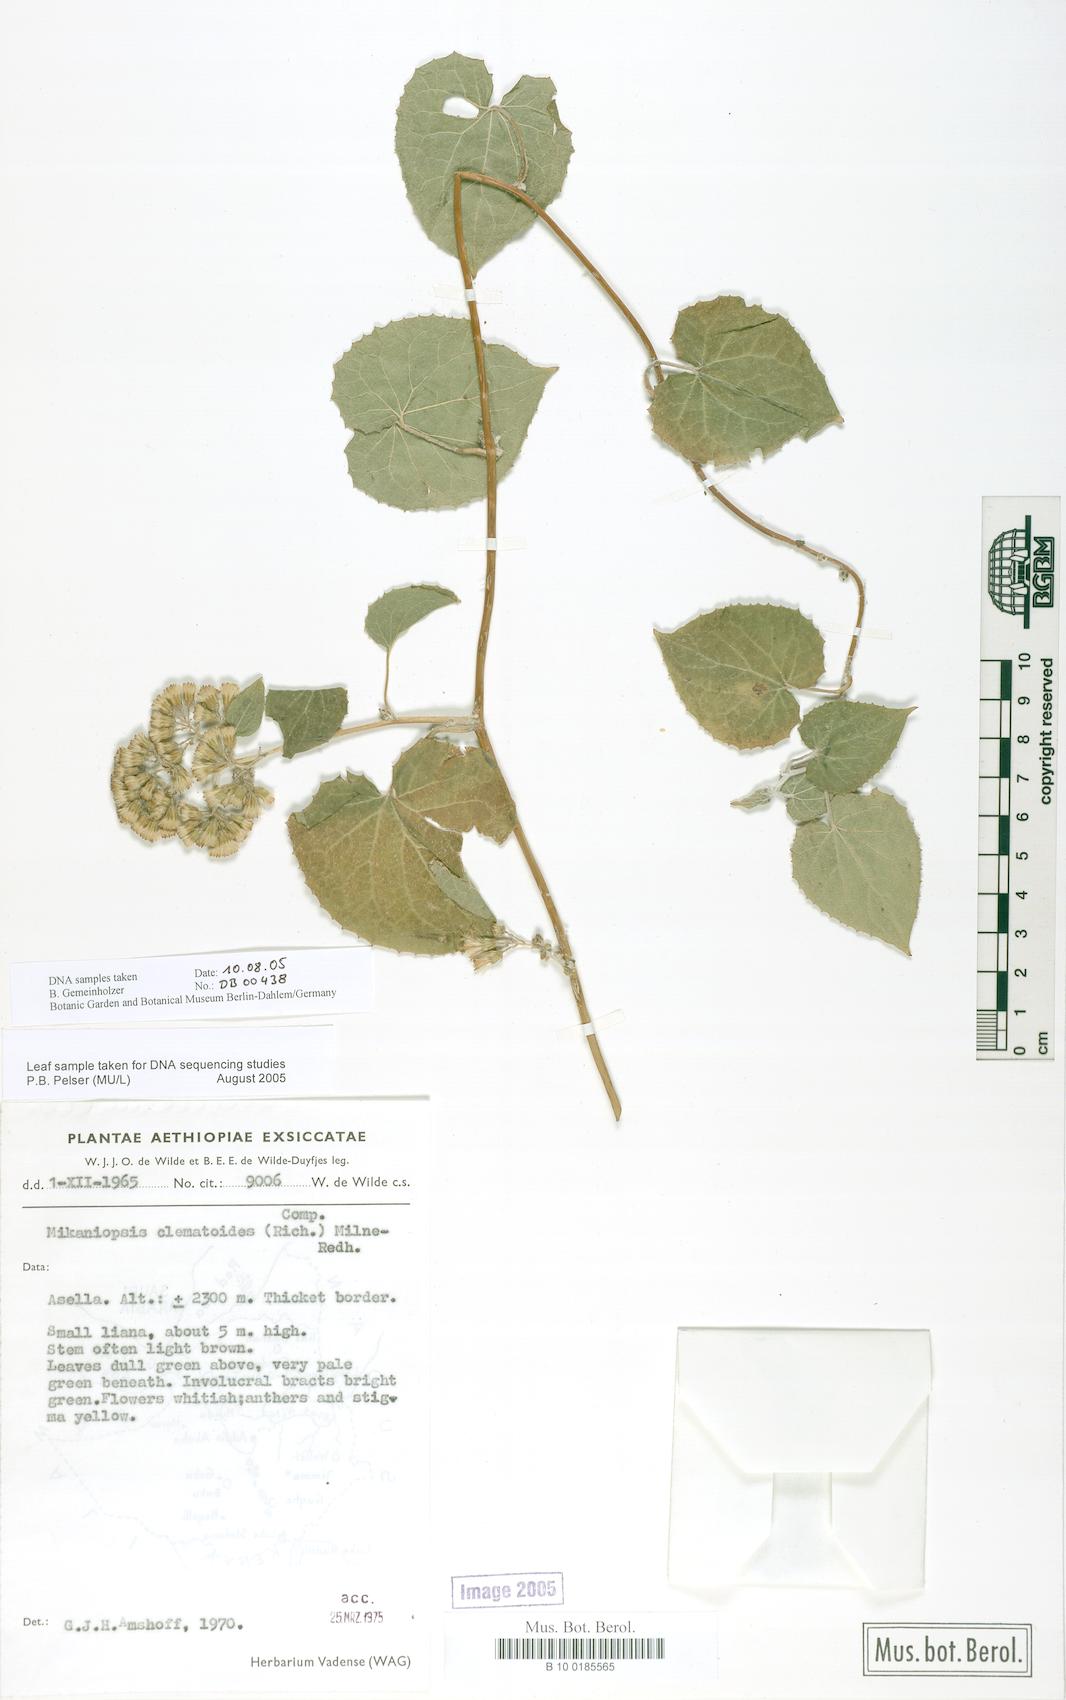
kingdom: Plantae
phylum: Tracheophyta
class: Magnoliopsida
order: Asterales
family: Asteraceae
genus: Mikaniopsis
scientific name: Mikaniopsis clematoides
